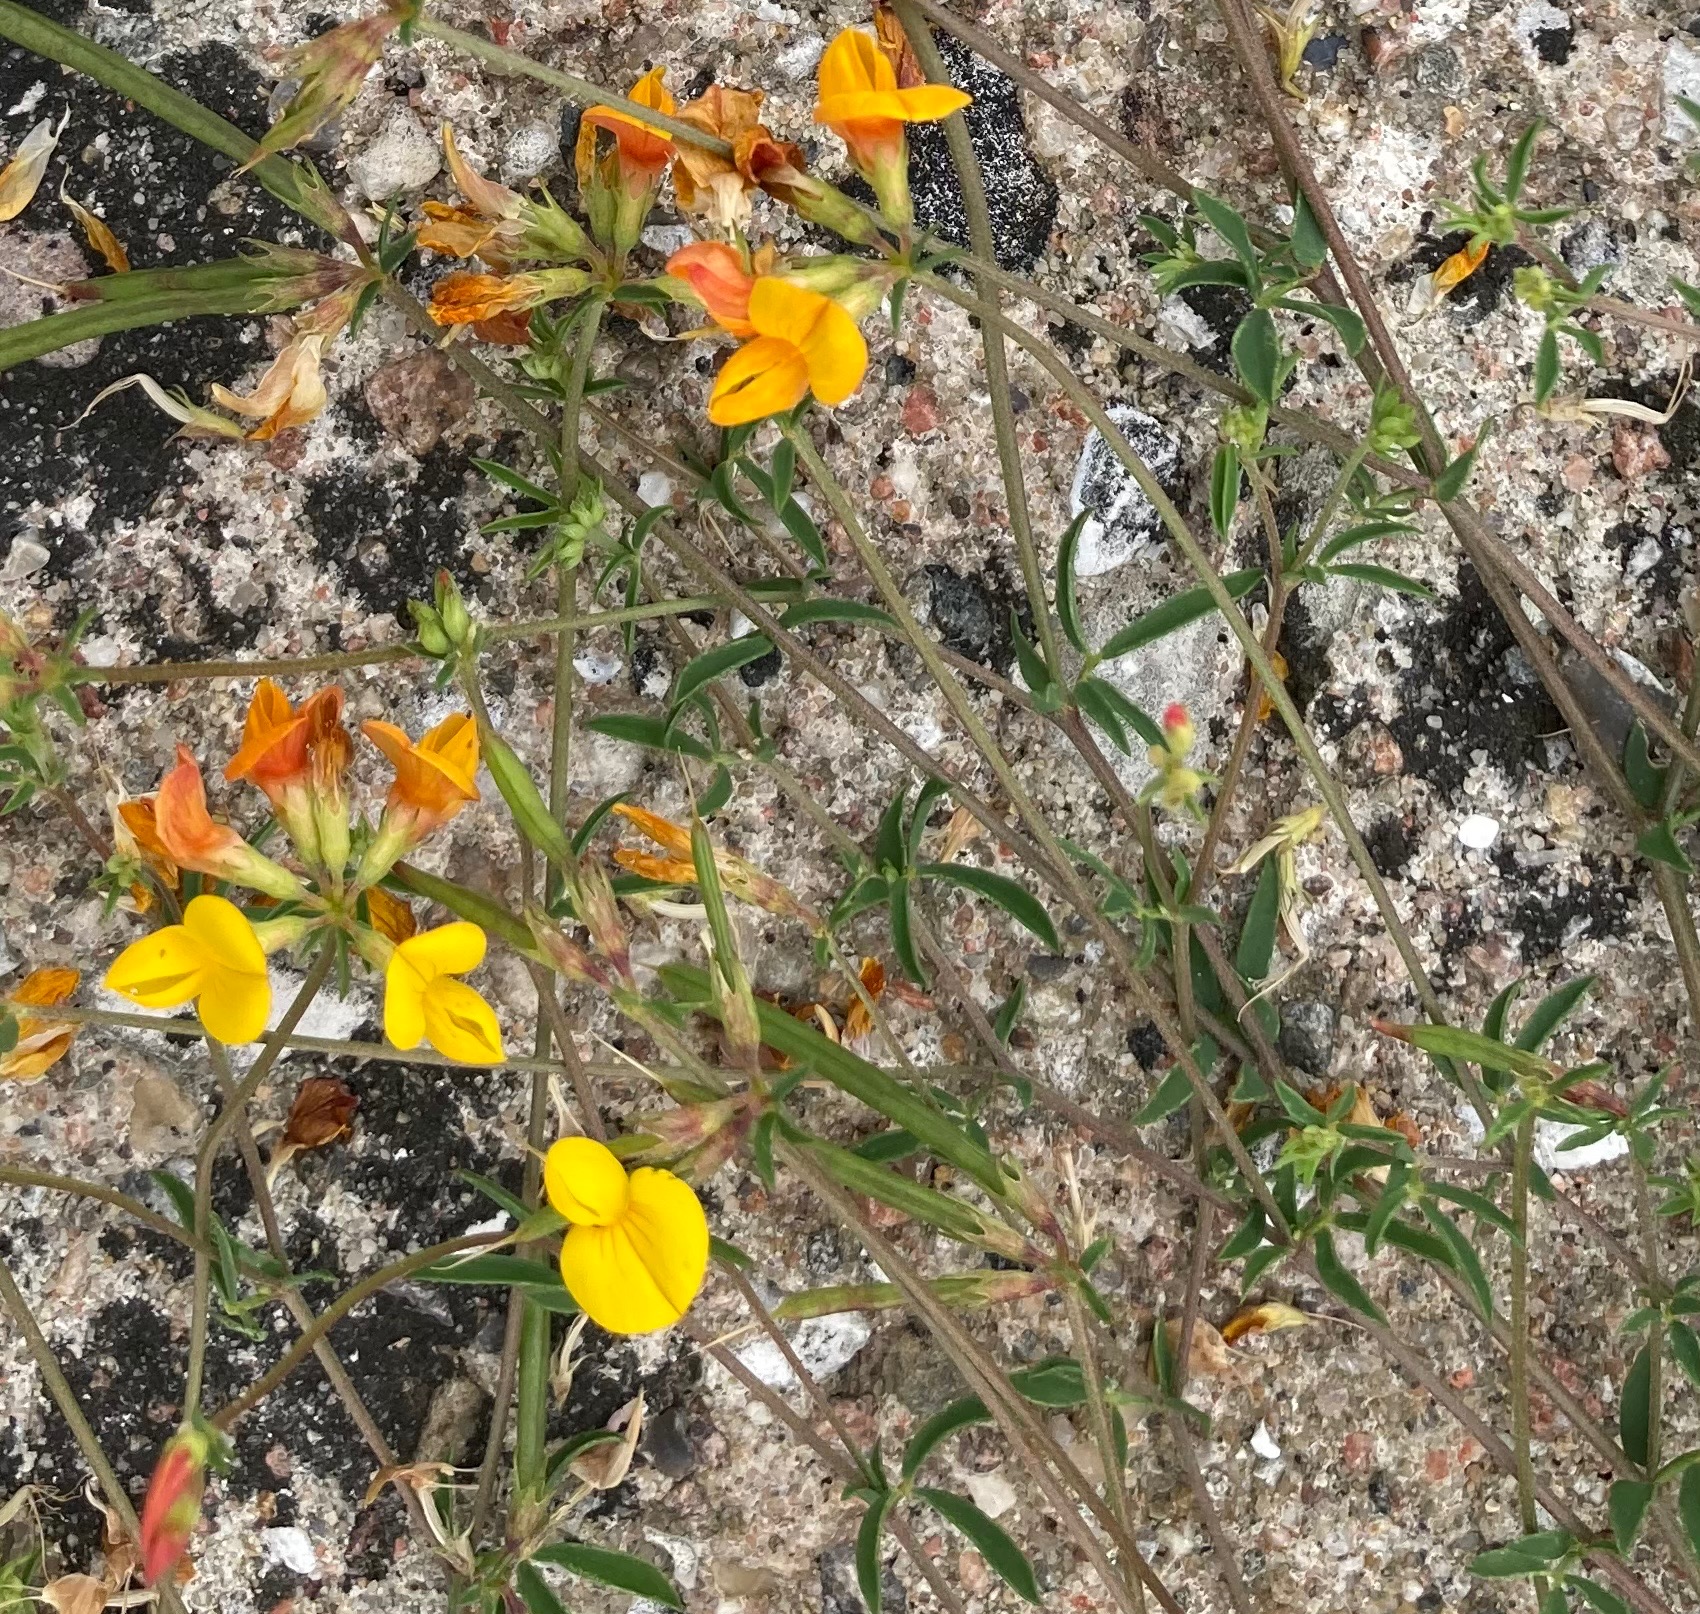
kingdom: Plantae
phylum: Tracheophyta
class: Magnoliopsida
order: Fabales
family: Fabaceae
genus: Lotus
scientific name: Lotus tenuis
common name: Smalbladet kællingetand
